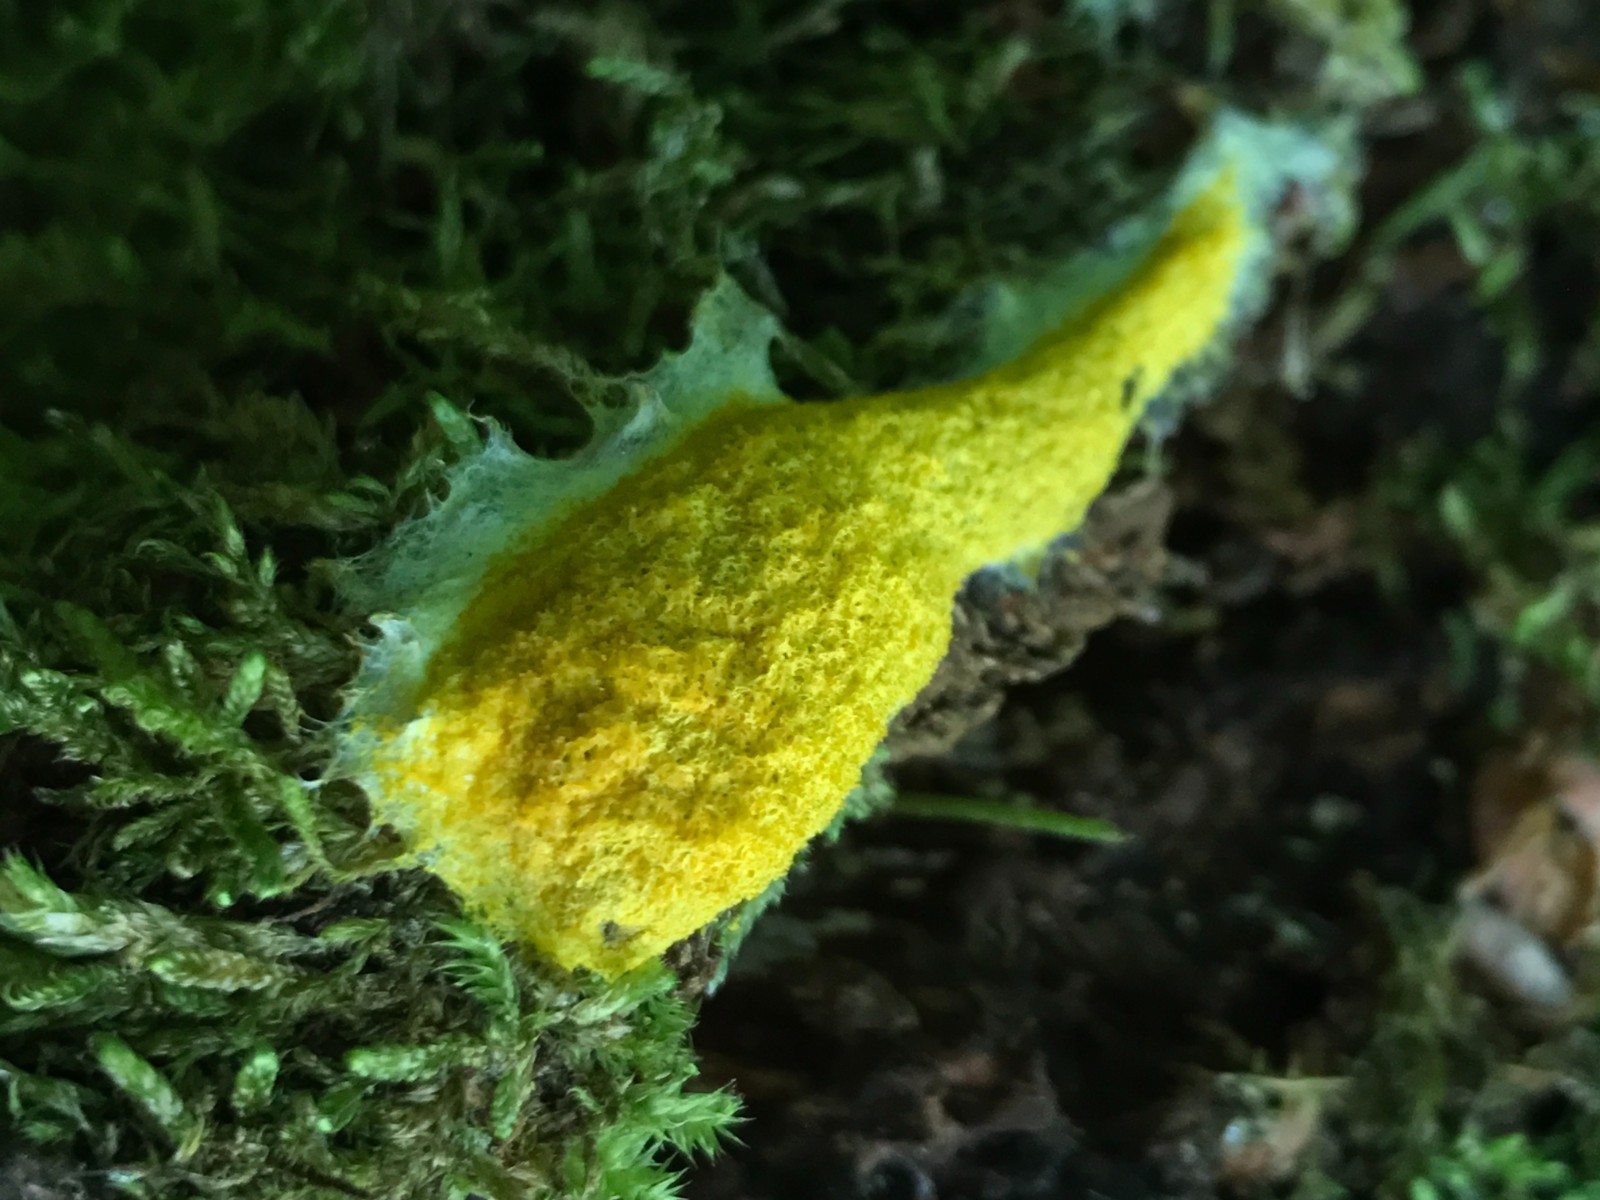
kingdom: Protozoa
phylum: Mycetozoa
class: Myxomycetes
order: Physarales
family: Physaraceae
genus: Fuligo
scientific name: Fuligo septica
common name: gul troldsmør
